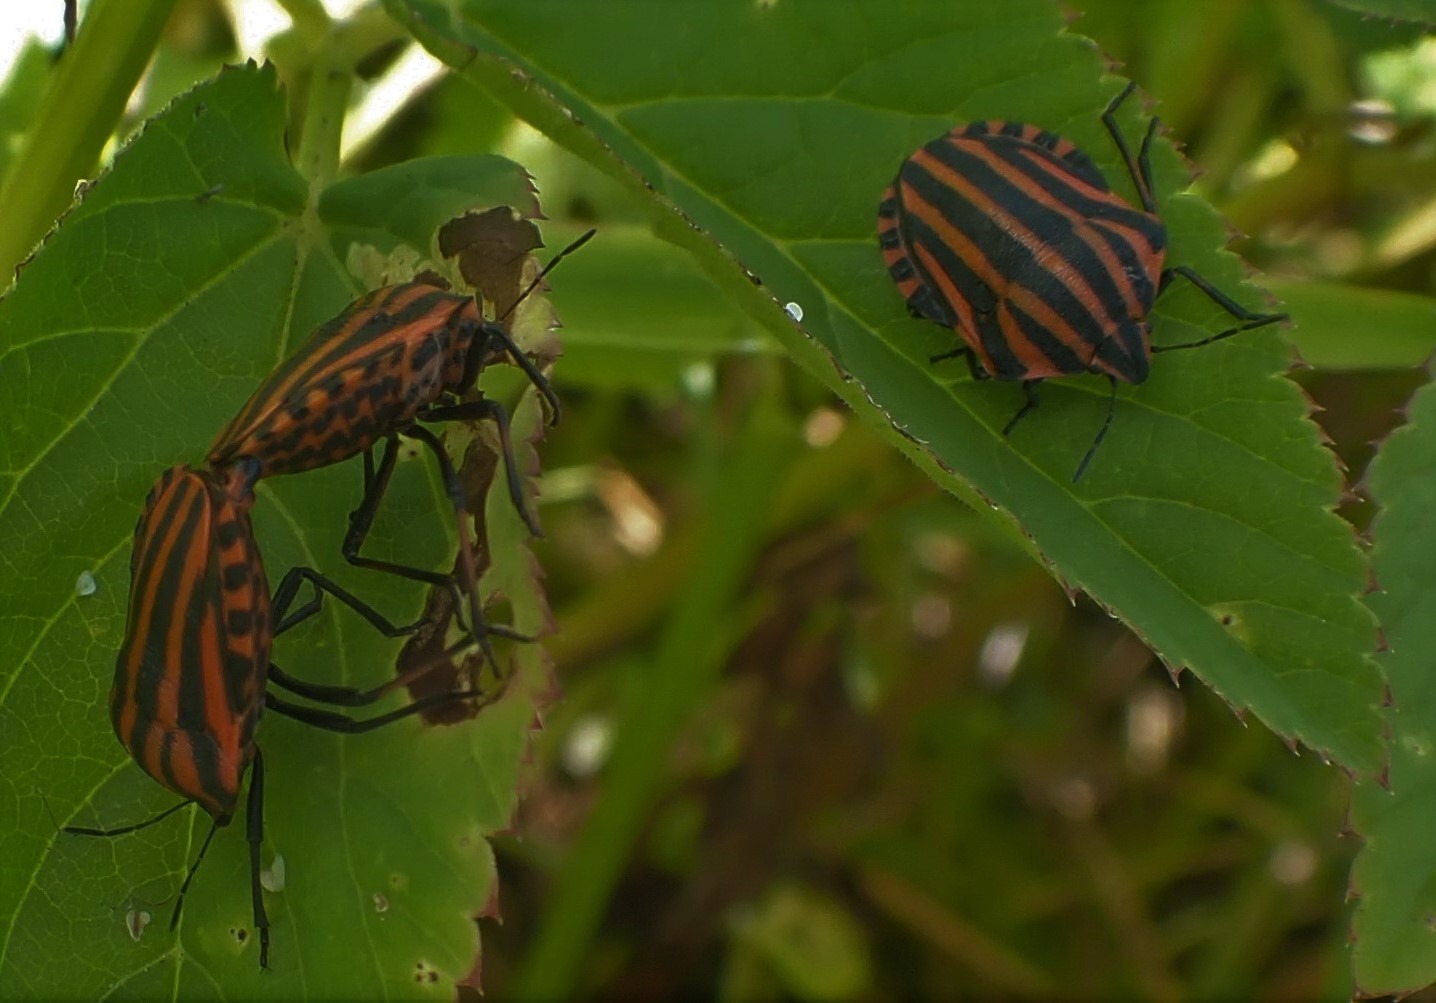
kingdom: Animalia
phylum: Arthropoda
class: Insecta
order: Hemiptera
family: Pentatomidae
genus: Graphosoma
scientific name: Graphosoma italicum
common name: Stribetæge
